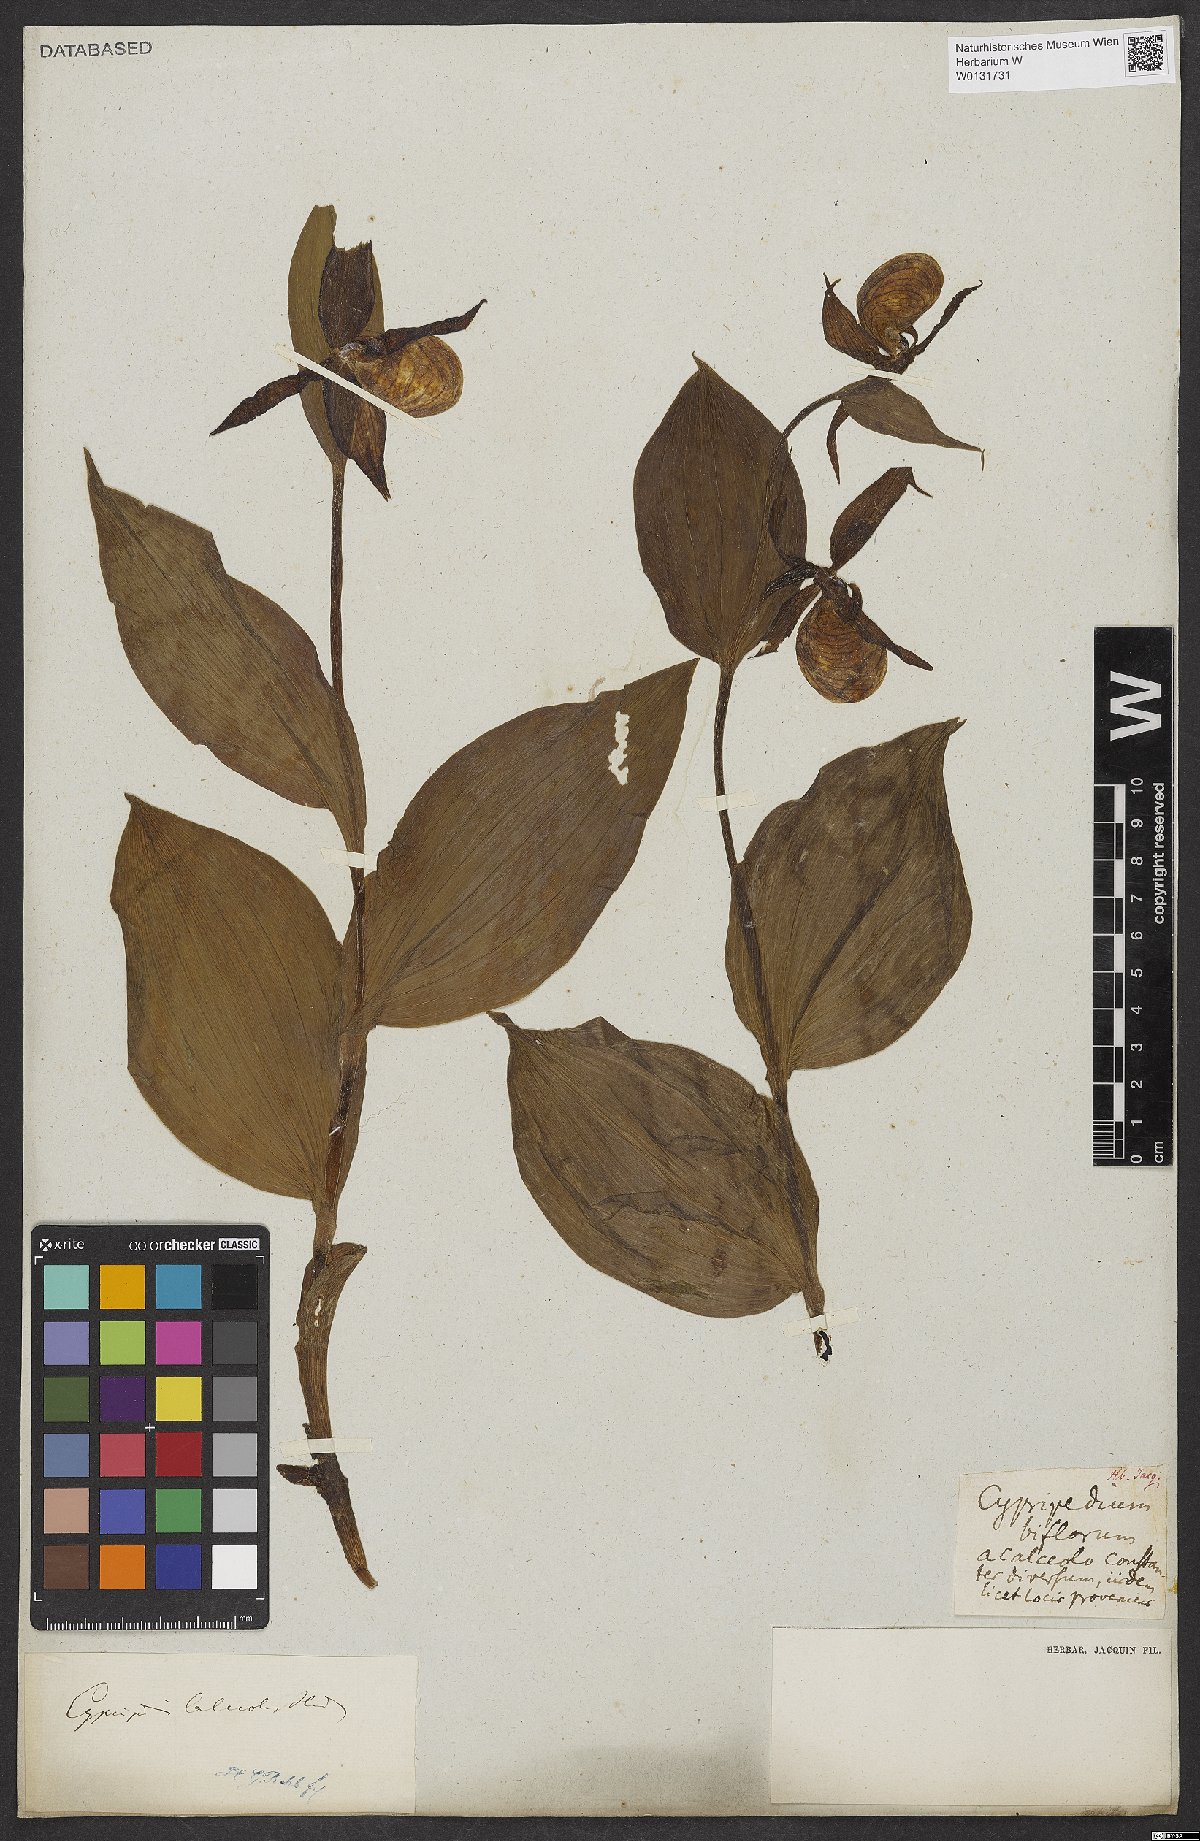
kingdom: Plantae
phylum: Tracheophyta
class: Liliopsida
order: Asparagales
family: Orchidaceae
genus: Cypripedium
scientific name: Cypripedium calceolus
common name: Lady's-slipper
